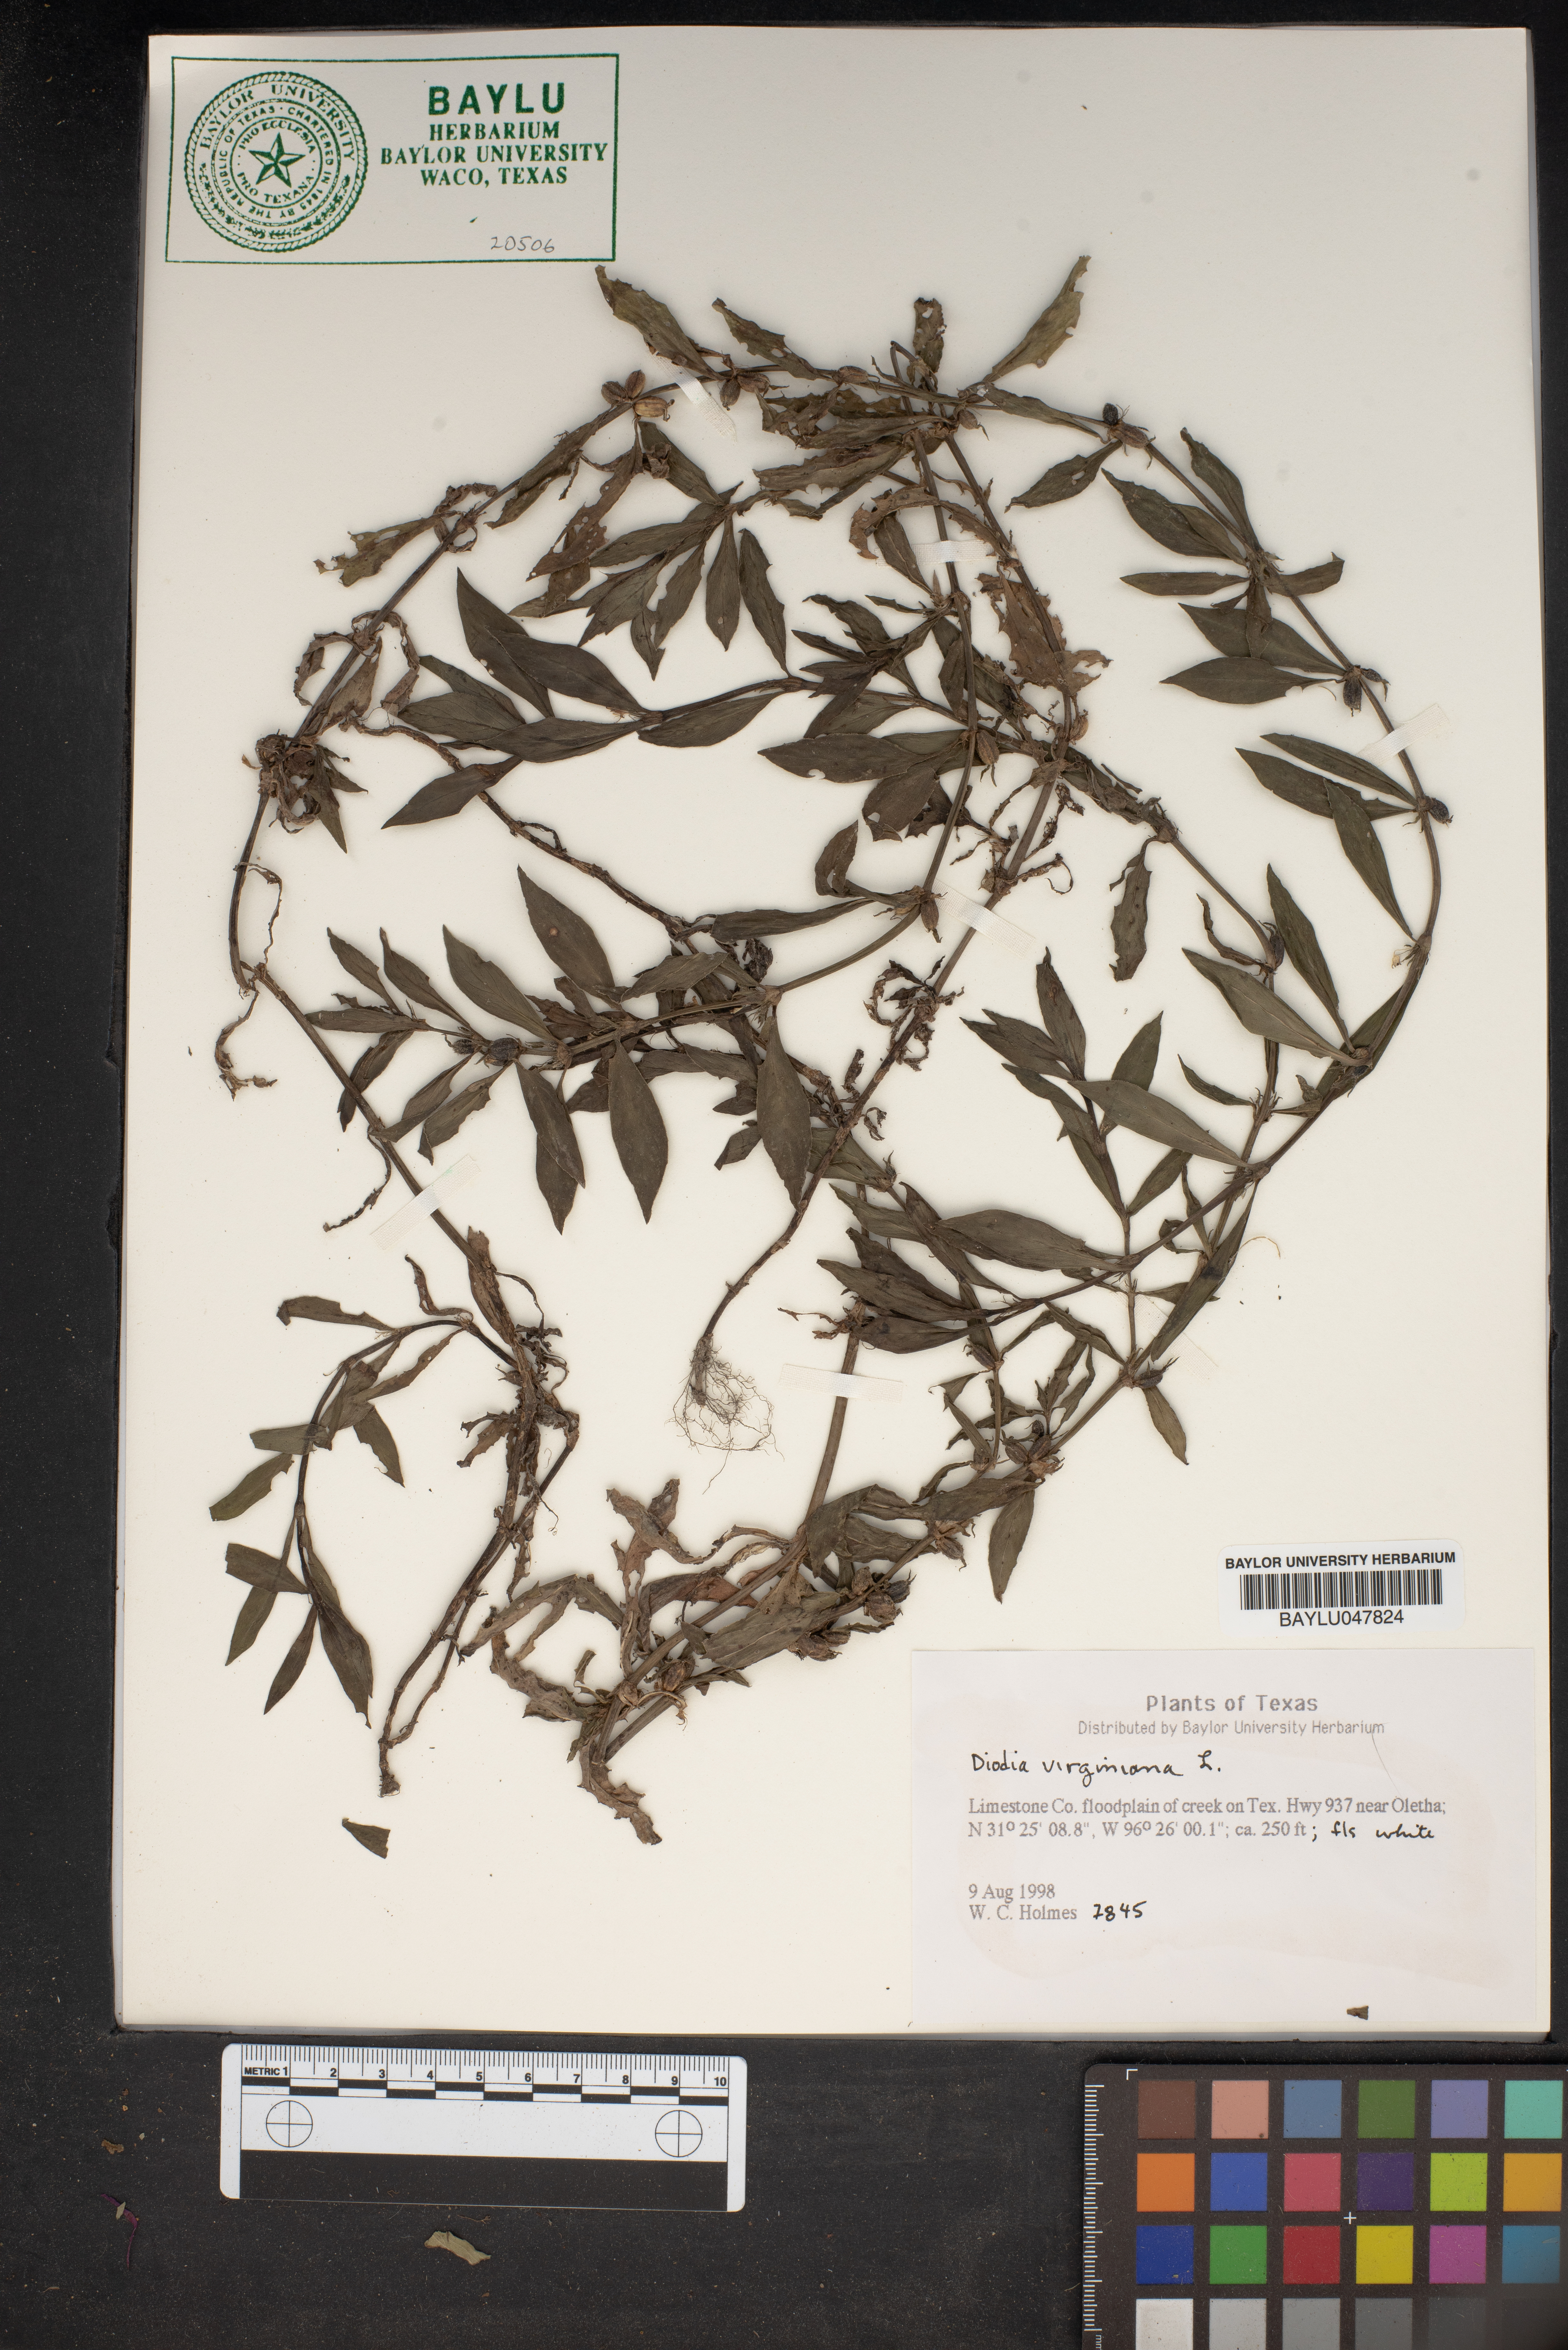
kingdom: Plantae
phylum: Tracheophyta
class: Magnoliopsida
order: Gentianales
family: Rubiaceae
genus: Diodia
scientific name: Diodia virginiana
